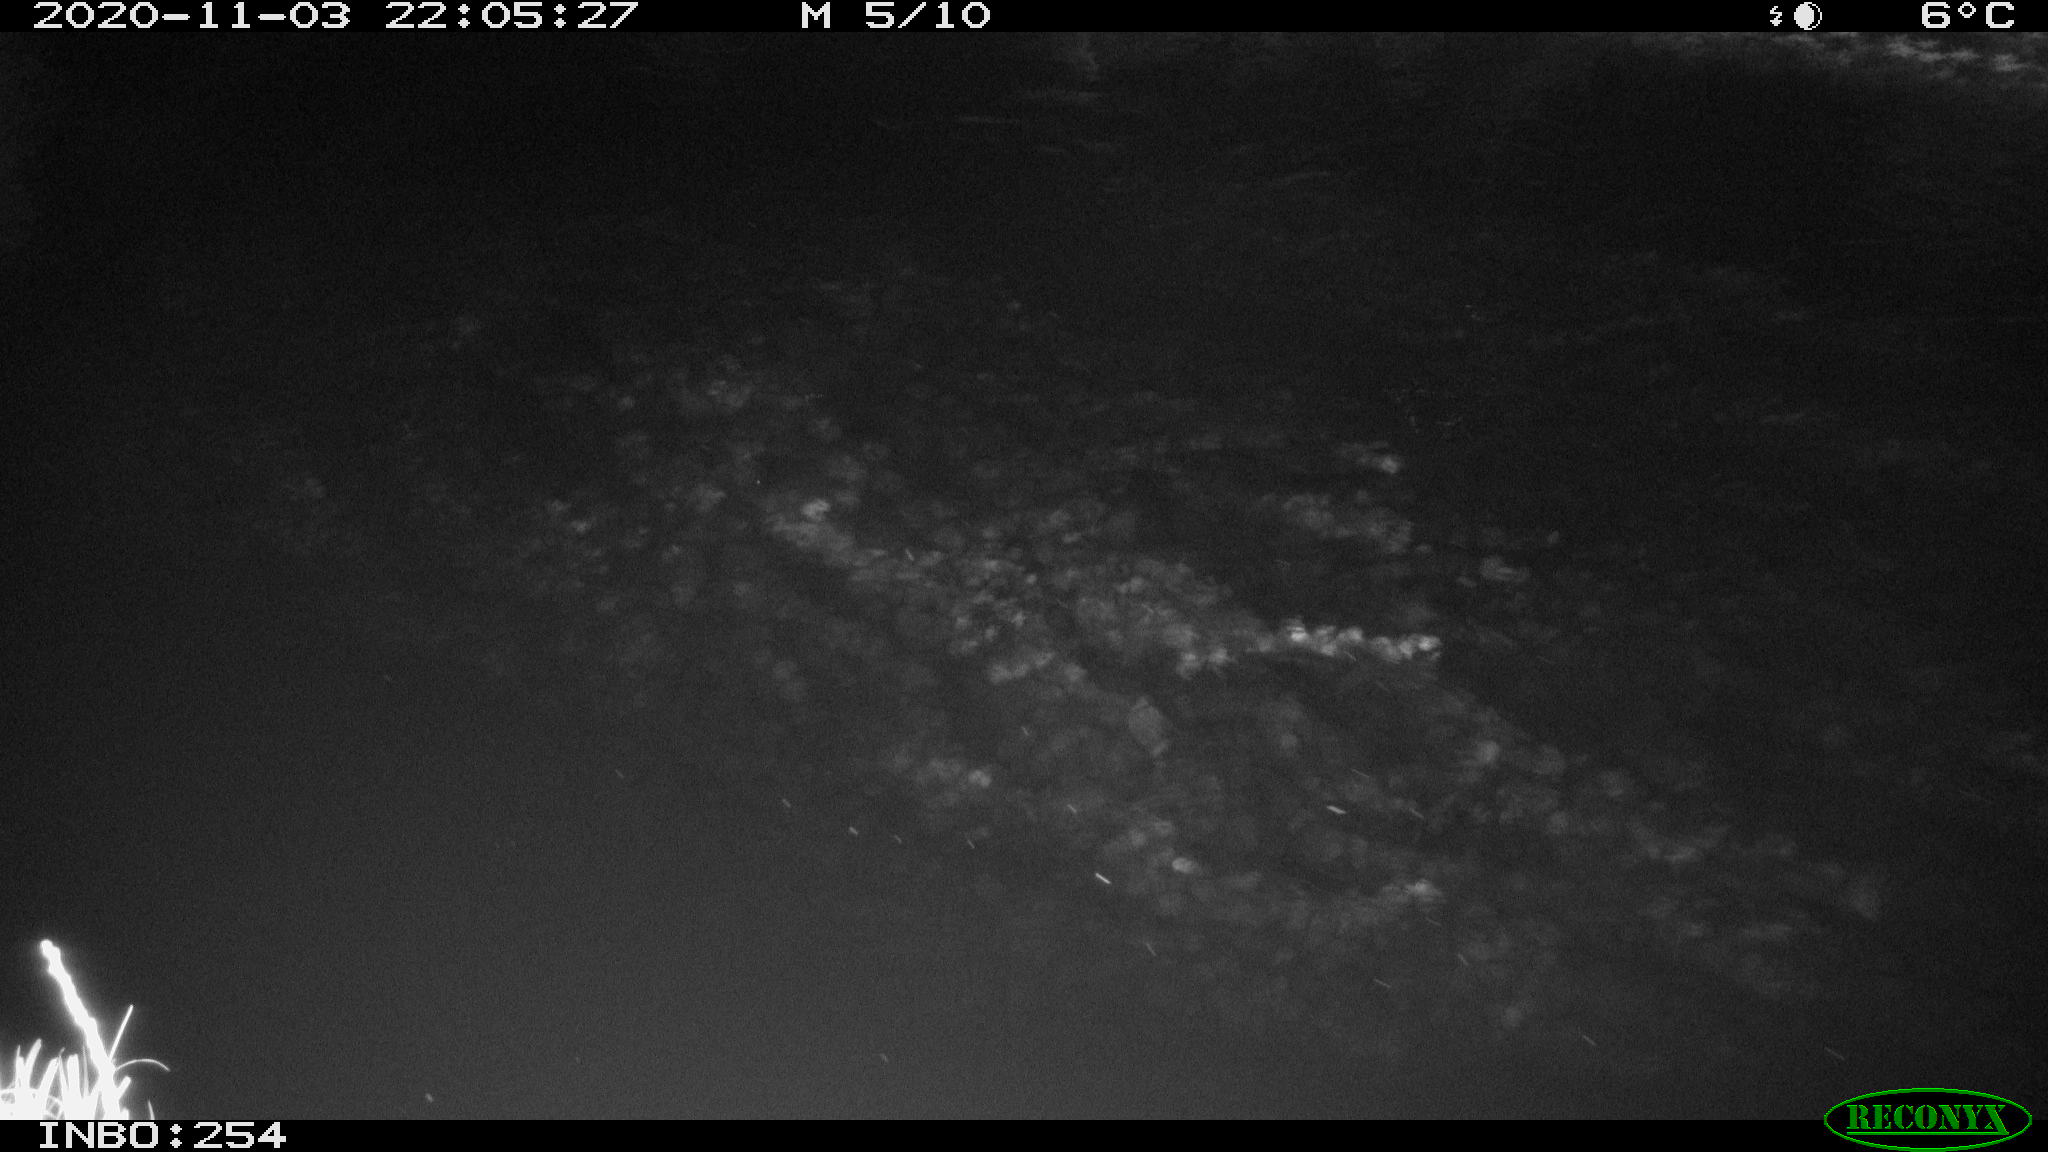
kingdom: Animalia
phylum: Chordata
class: Aves
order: Anseriformes
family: Anatidae
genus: Anas
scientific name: Anas platyrhynchos
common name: Mallard
